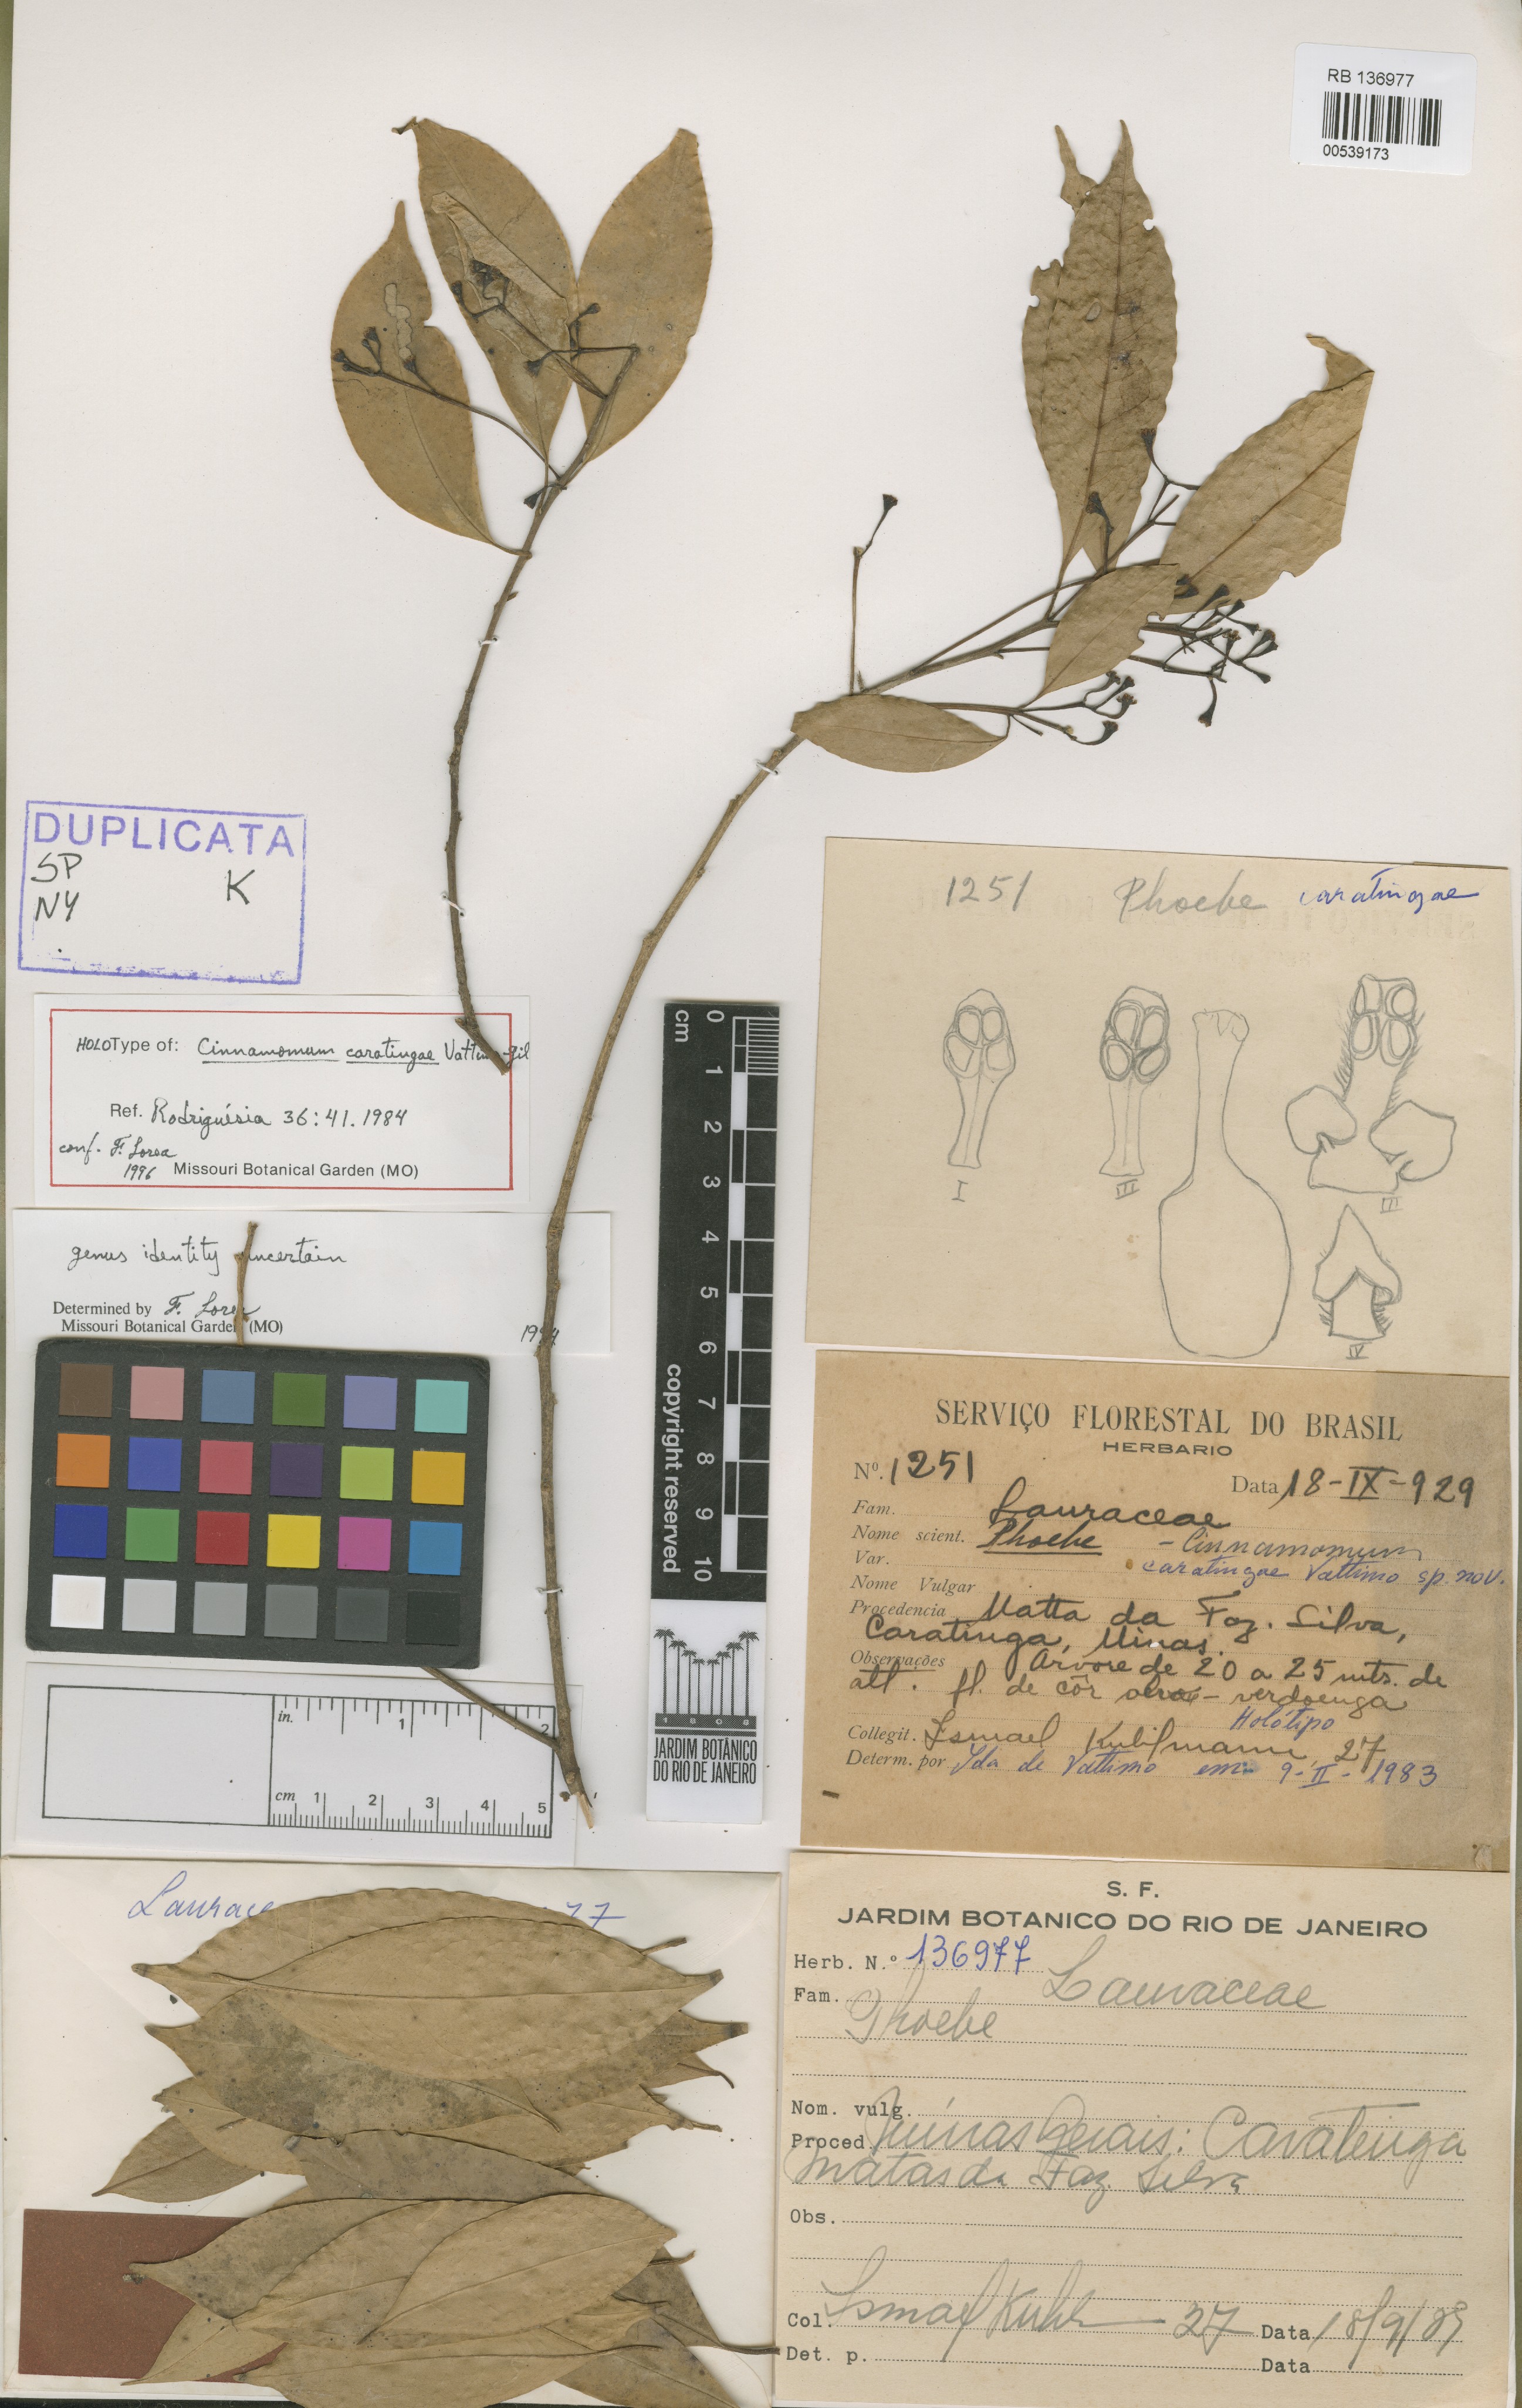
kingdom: Plantae
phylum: Tracheophyta
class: Magnoliopsida
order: Laurales
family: Lauraceae
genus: Aiouea
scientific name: Aiouea caratingae
